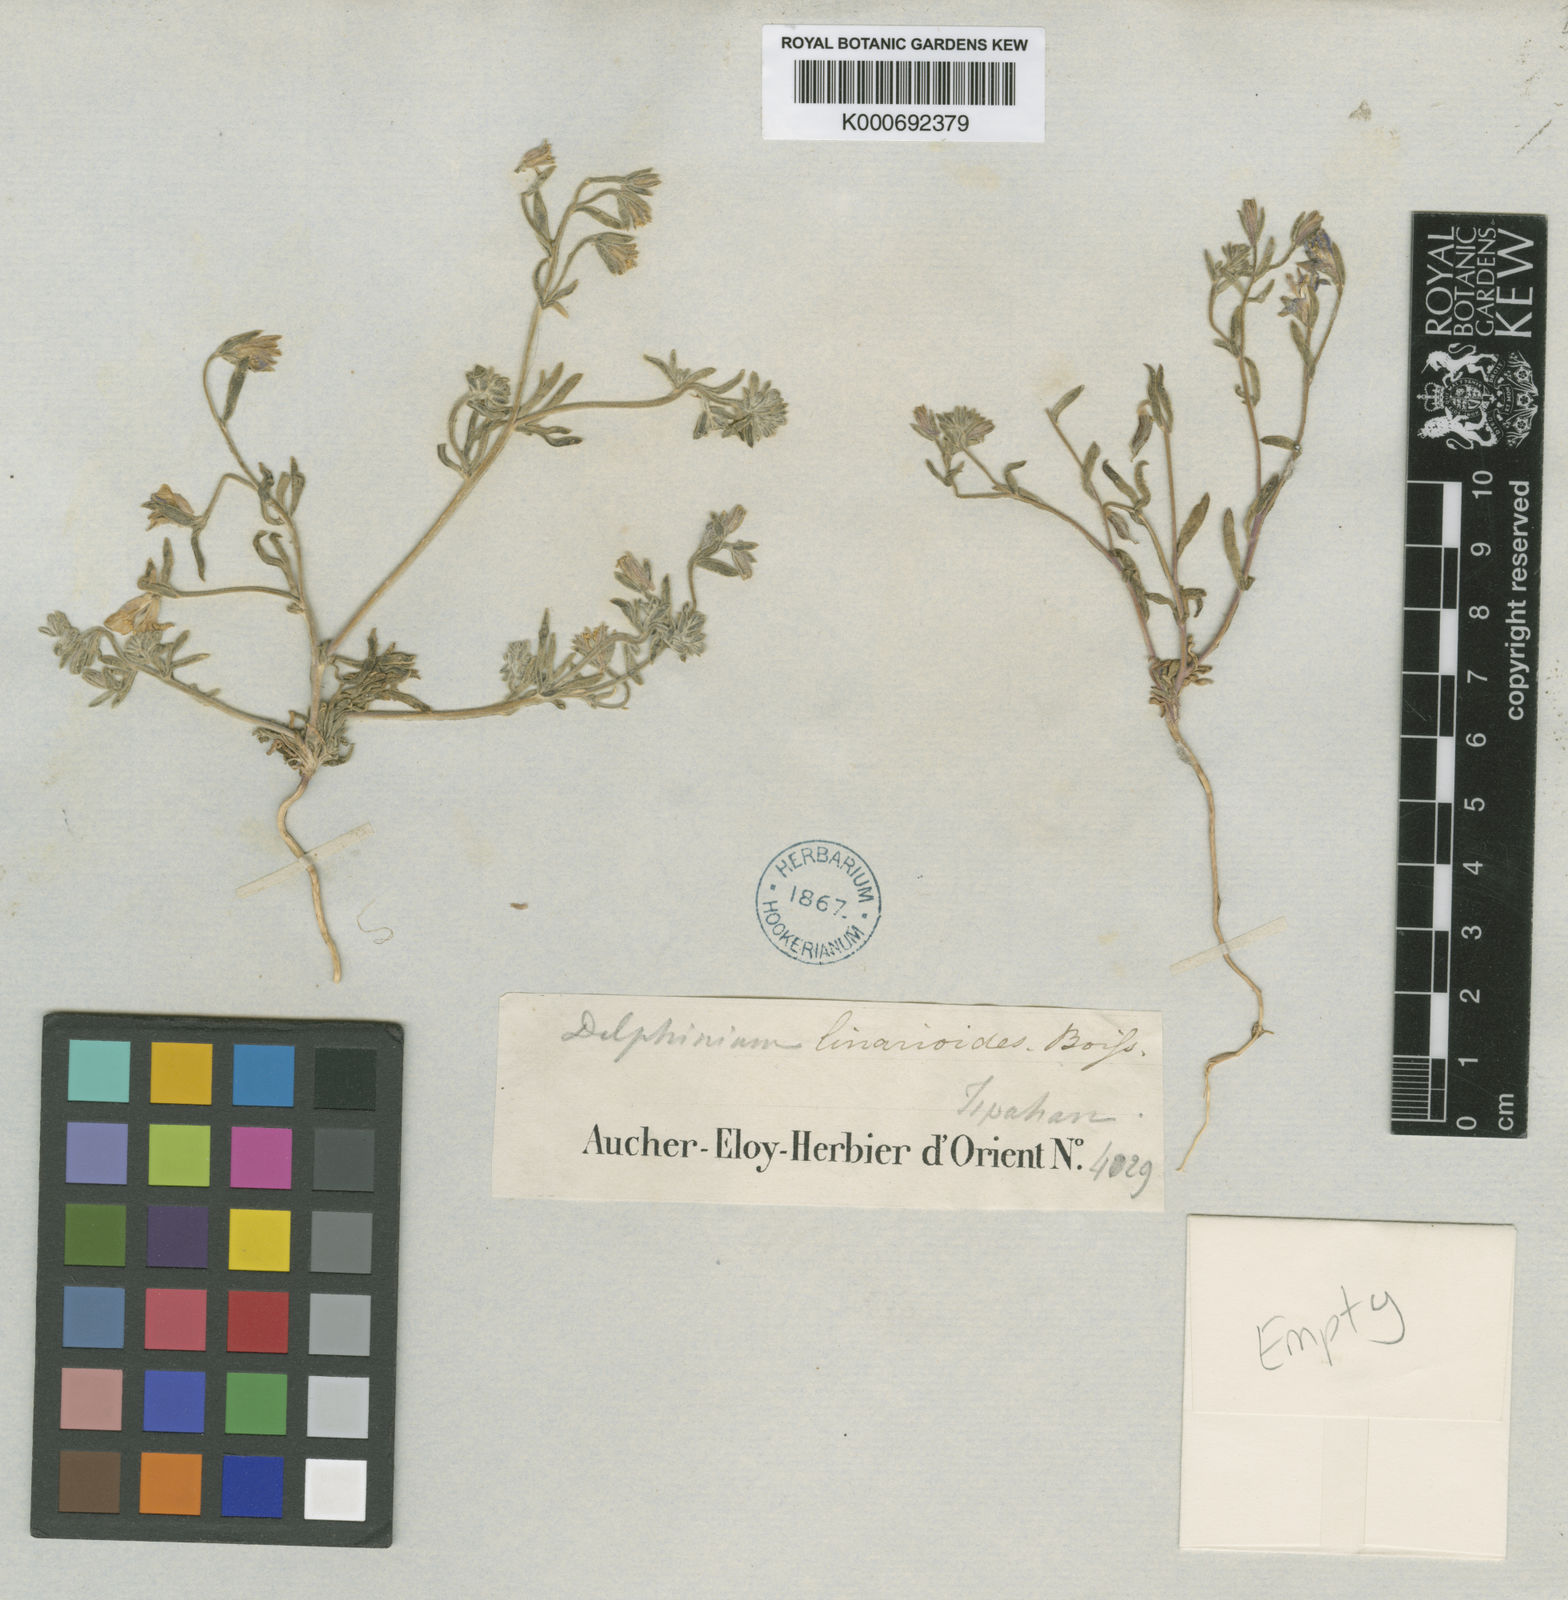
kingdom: Plantae
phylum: Tracheophyta
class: Magnoliopsida
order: Ranunculales
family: Ranunculaceae
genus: Delphinium
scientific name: Delphinium linarioides
